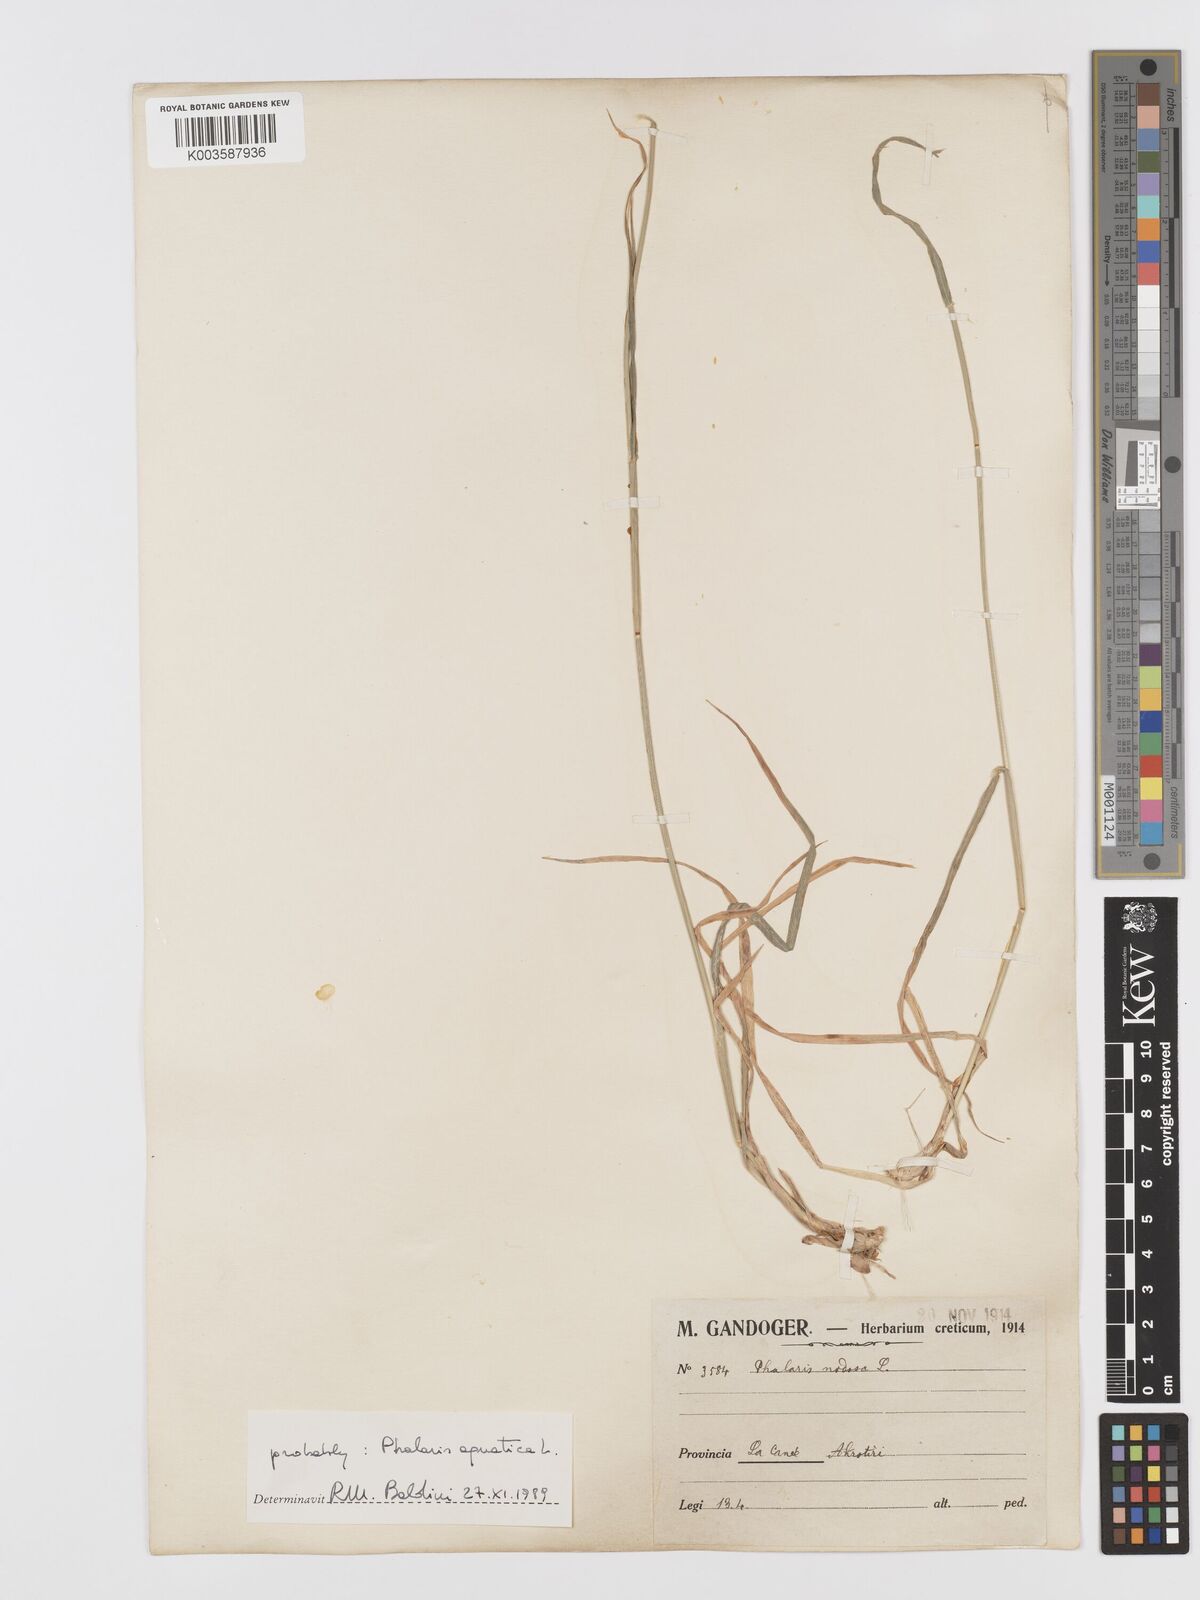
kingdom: Plantae
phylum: Tracheophyta
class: Liliopsida
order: Poales
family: Poaceae
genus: Phalaris
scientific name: Phalaris
